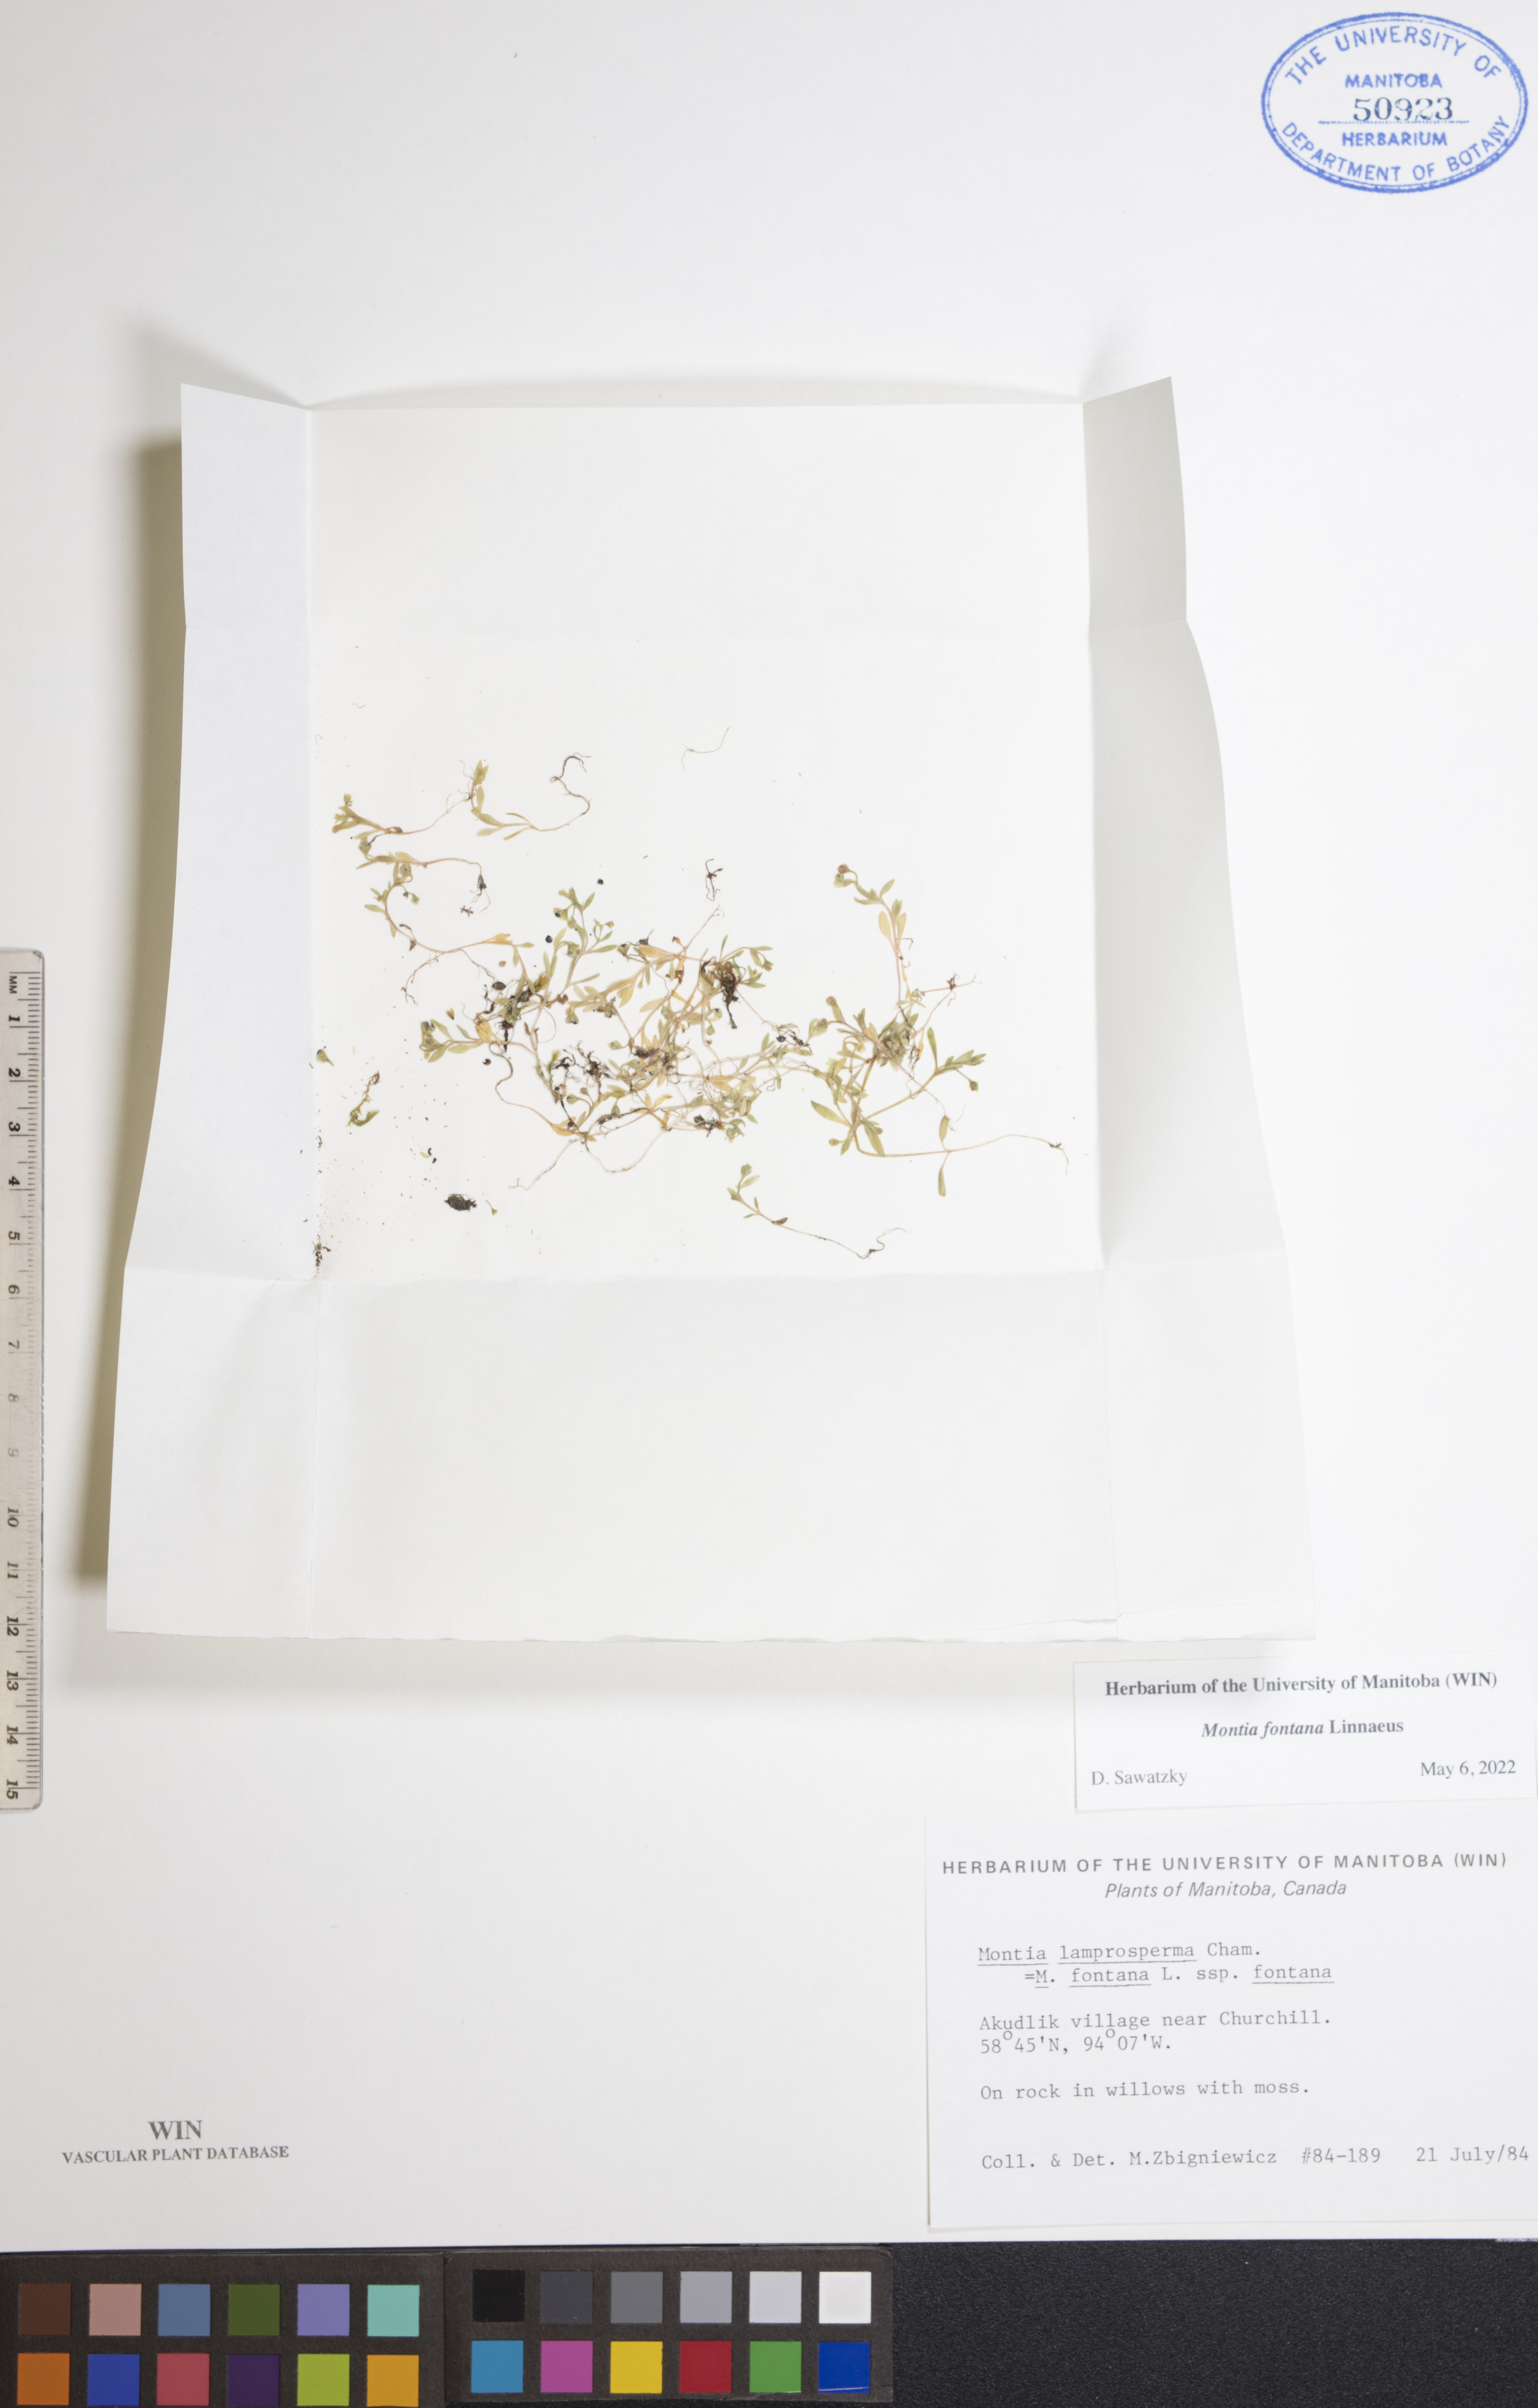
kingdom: Plantae
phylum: Tracheophyta
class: Magnoliopsida
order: Caryophyllales
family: Montiaceae
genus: Montia
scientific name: Montia fontana
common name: Blinks
